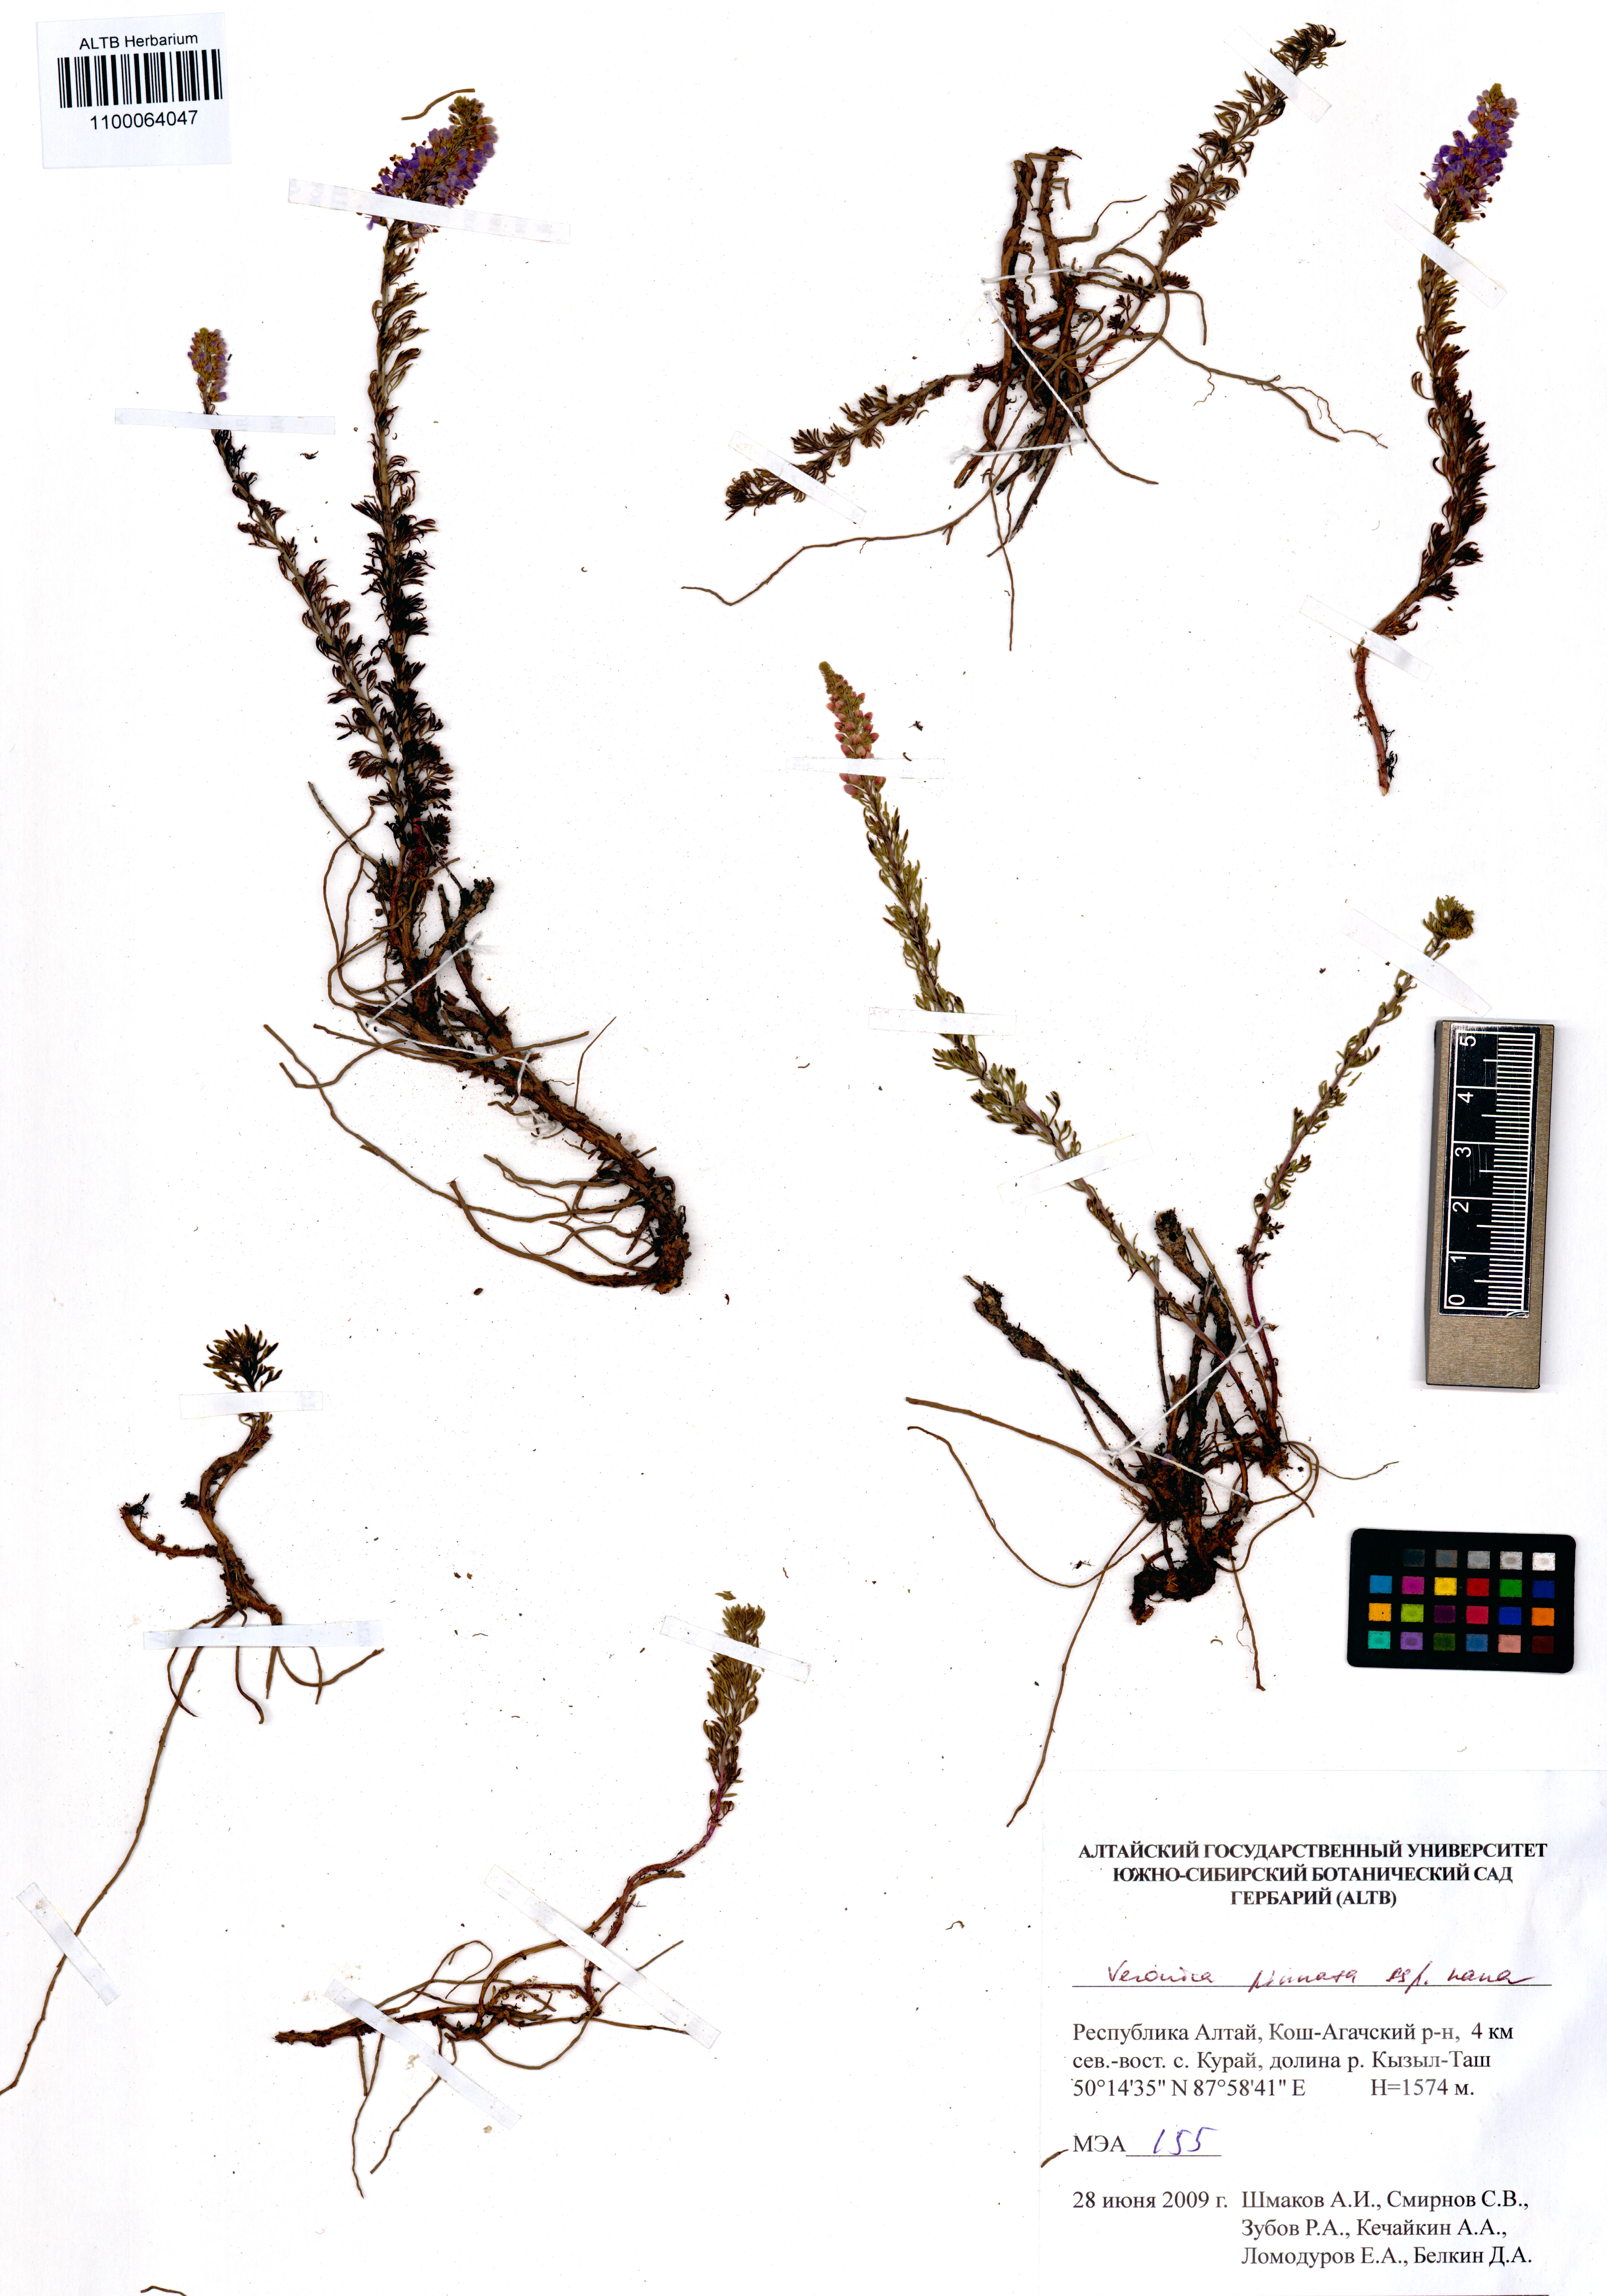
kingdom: Plantae
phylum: Tracheophyta
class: Magnoliopsida
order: Lamiales
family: Plantaginaceae
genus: Veronica
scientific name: Veronica pinnata
